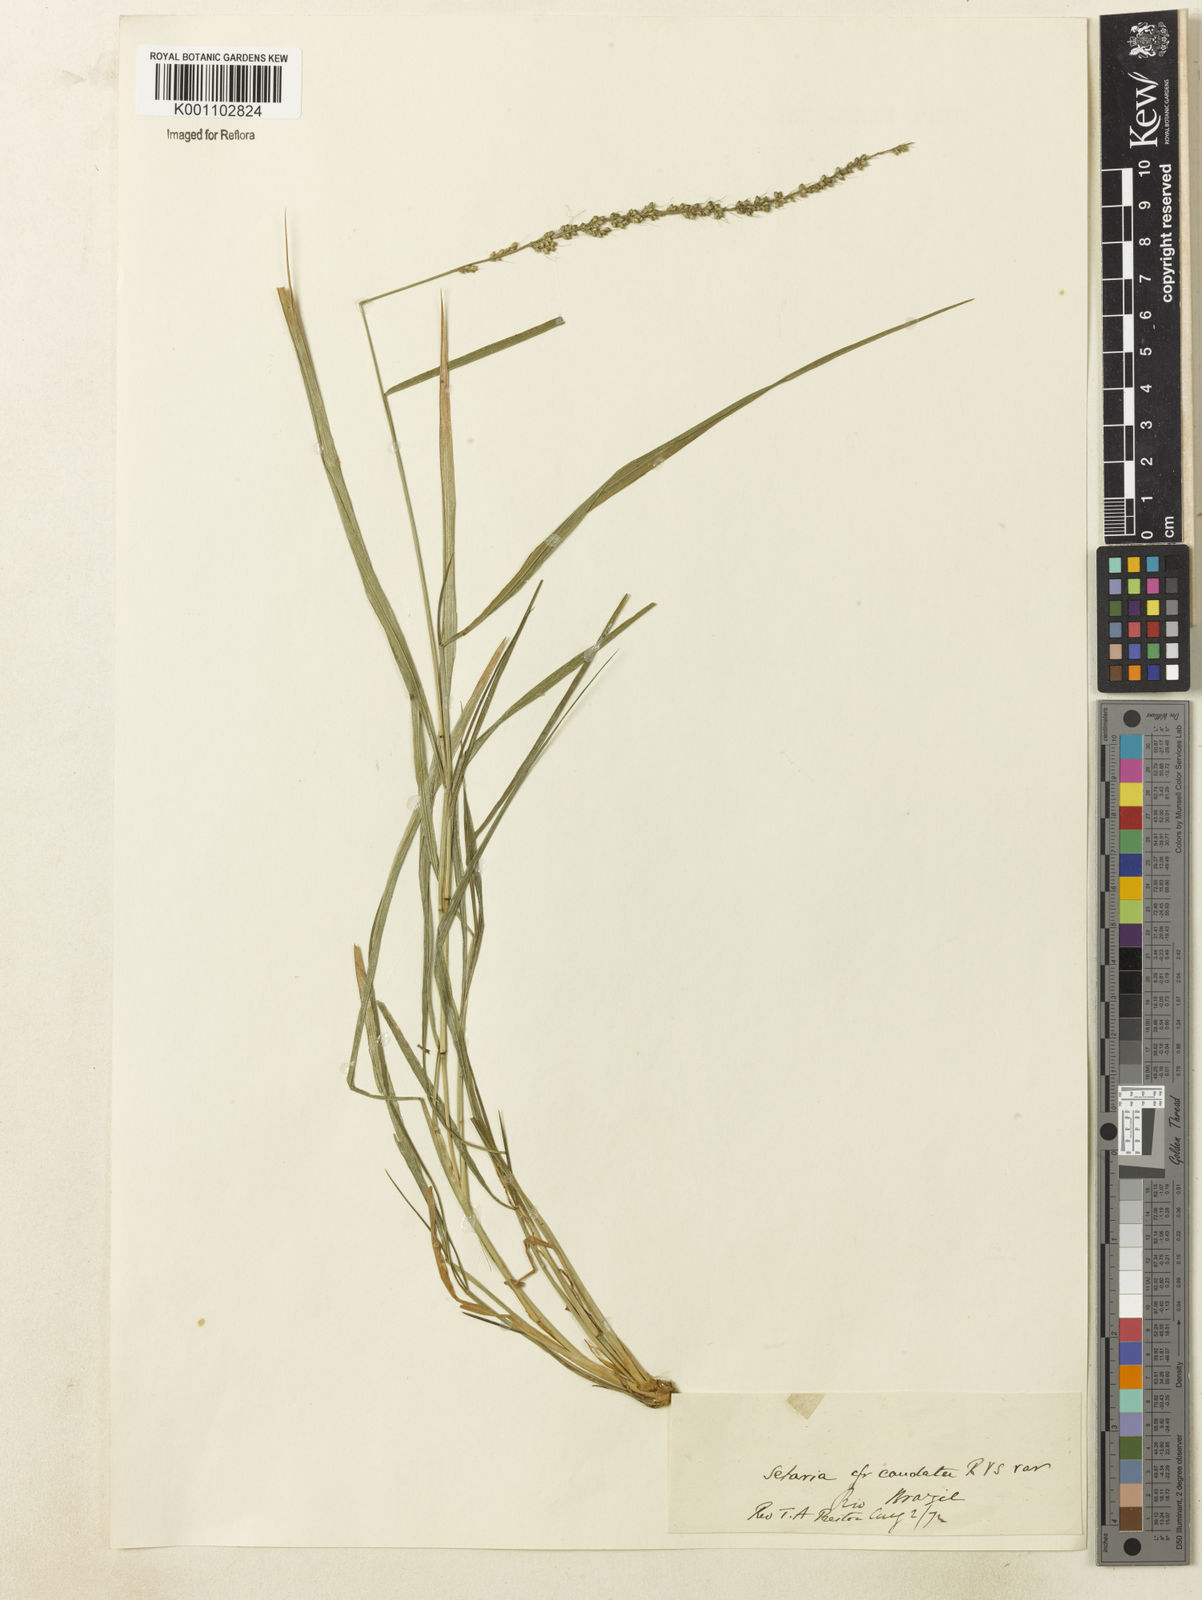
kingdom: Plantae
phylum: Tracheophyta
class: Liliopsida
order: Poales
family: Poaceae
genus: Setaria
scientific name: Setaria setosa
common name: West indies bristle grass
